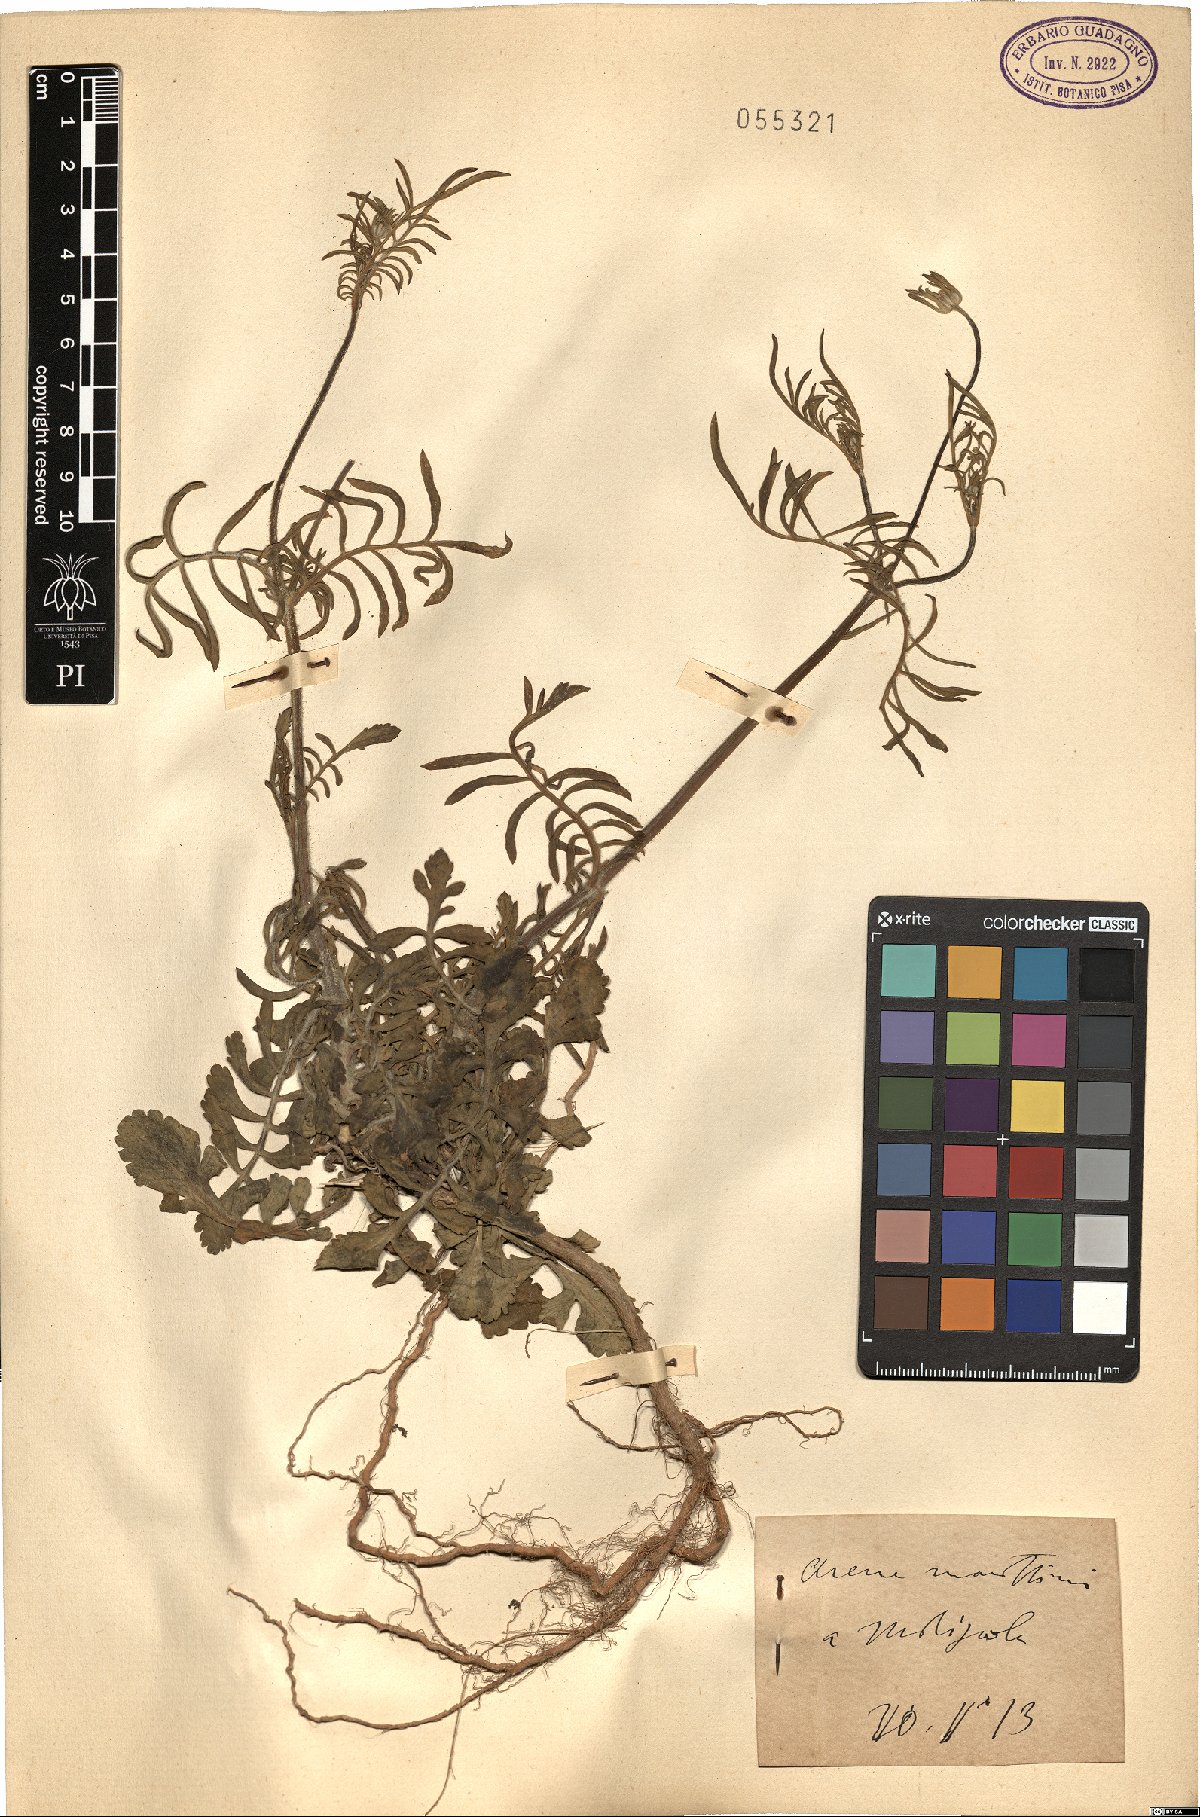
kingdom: Plantae
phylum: Tracheophyta
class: Magnoliopsida
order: Dipsacales
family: Caprifoliaceae
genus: Scabiosa
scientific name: Scabiosa
